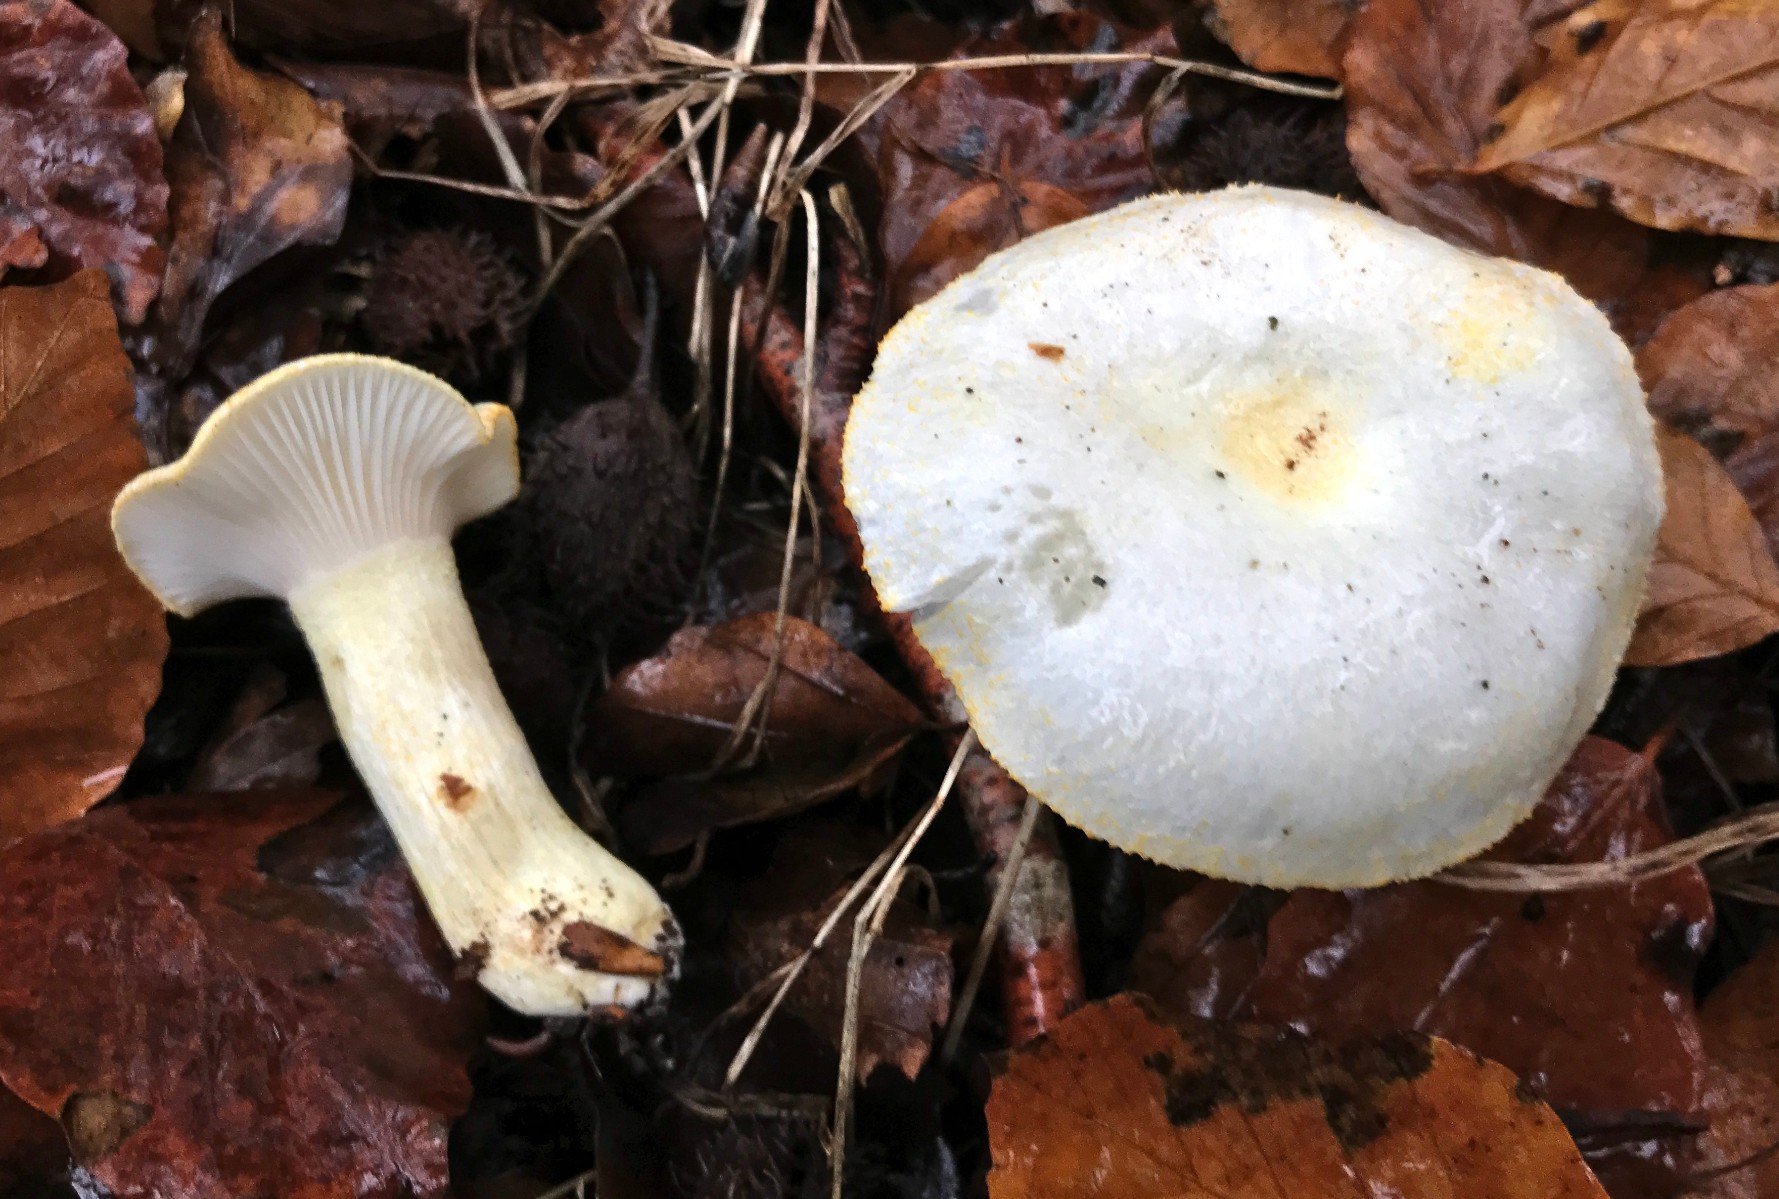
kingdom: Fungi
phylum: Basidiomycota
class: Agaricomycetes
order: Agaricales
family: Hygrophoraceae
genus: Hygrophorus
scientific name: Hygrophorus chrysodon
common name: gulfnugget sneglehat
